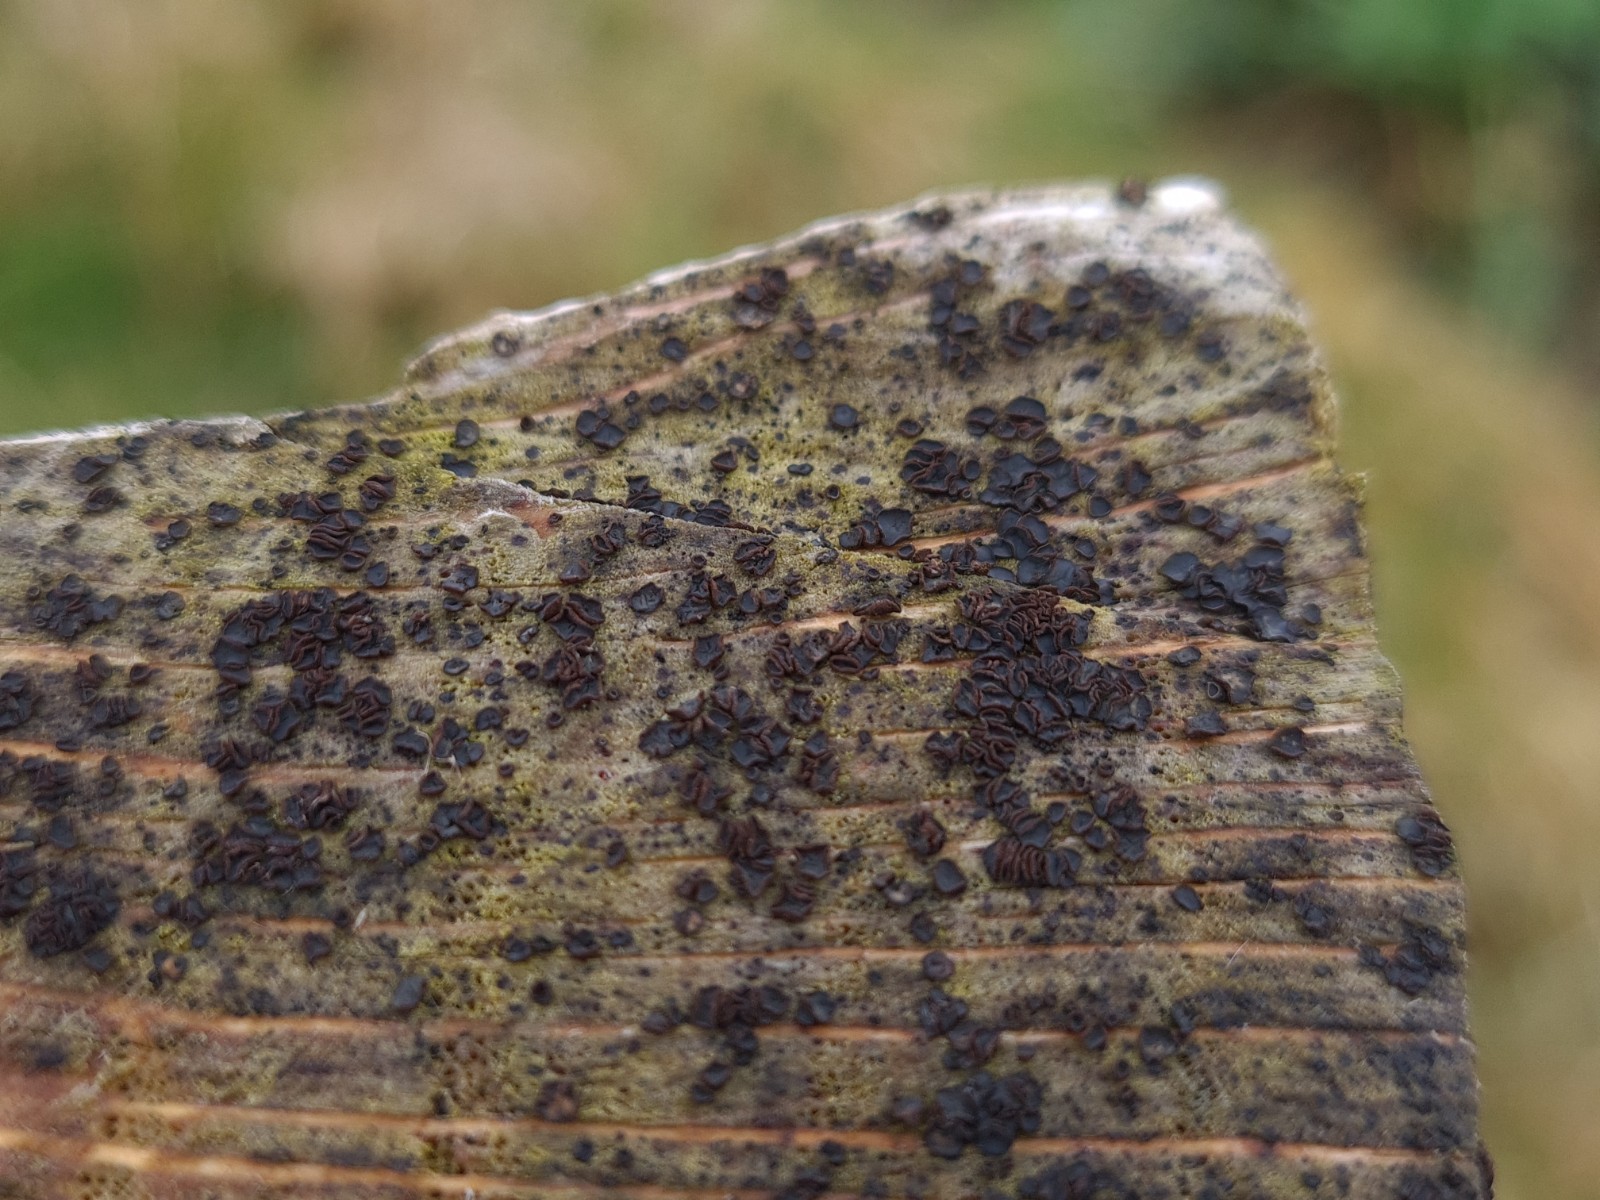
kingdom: Fungi
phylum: Ascomycota
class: Leotiomycetes
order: Helotiales
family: Mollisiaceae
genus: Mollisia
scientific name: Mollisia ligni
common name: ved-gråskive
